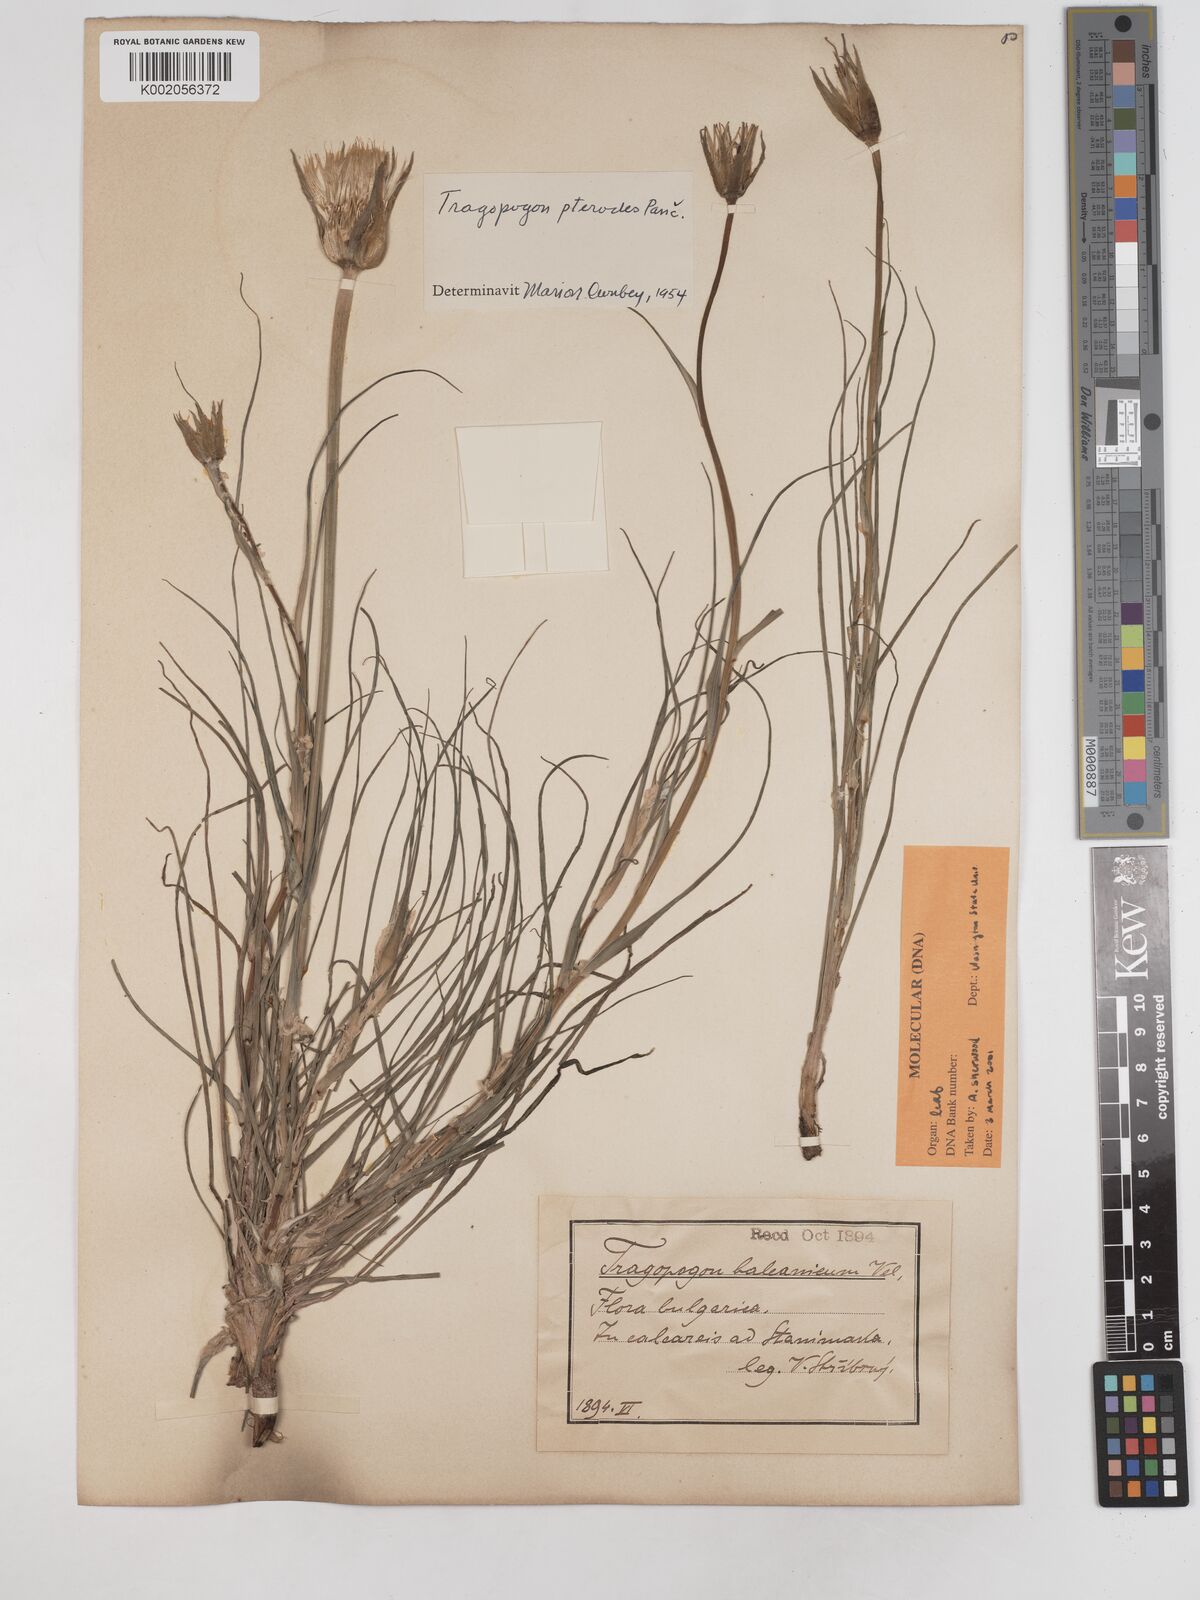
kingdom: Plantae
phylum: Tracheophyta
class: Magnoliopsida
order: Asterales
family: Asteraceae
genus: Tragopogon
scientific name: Tragopogon pterodes
